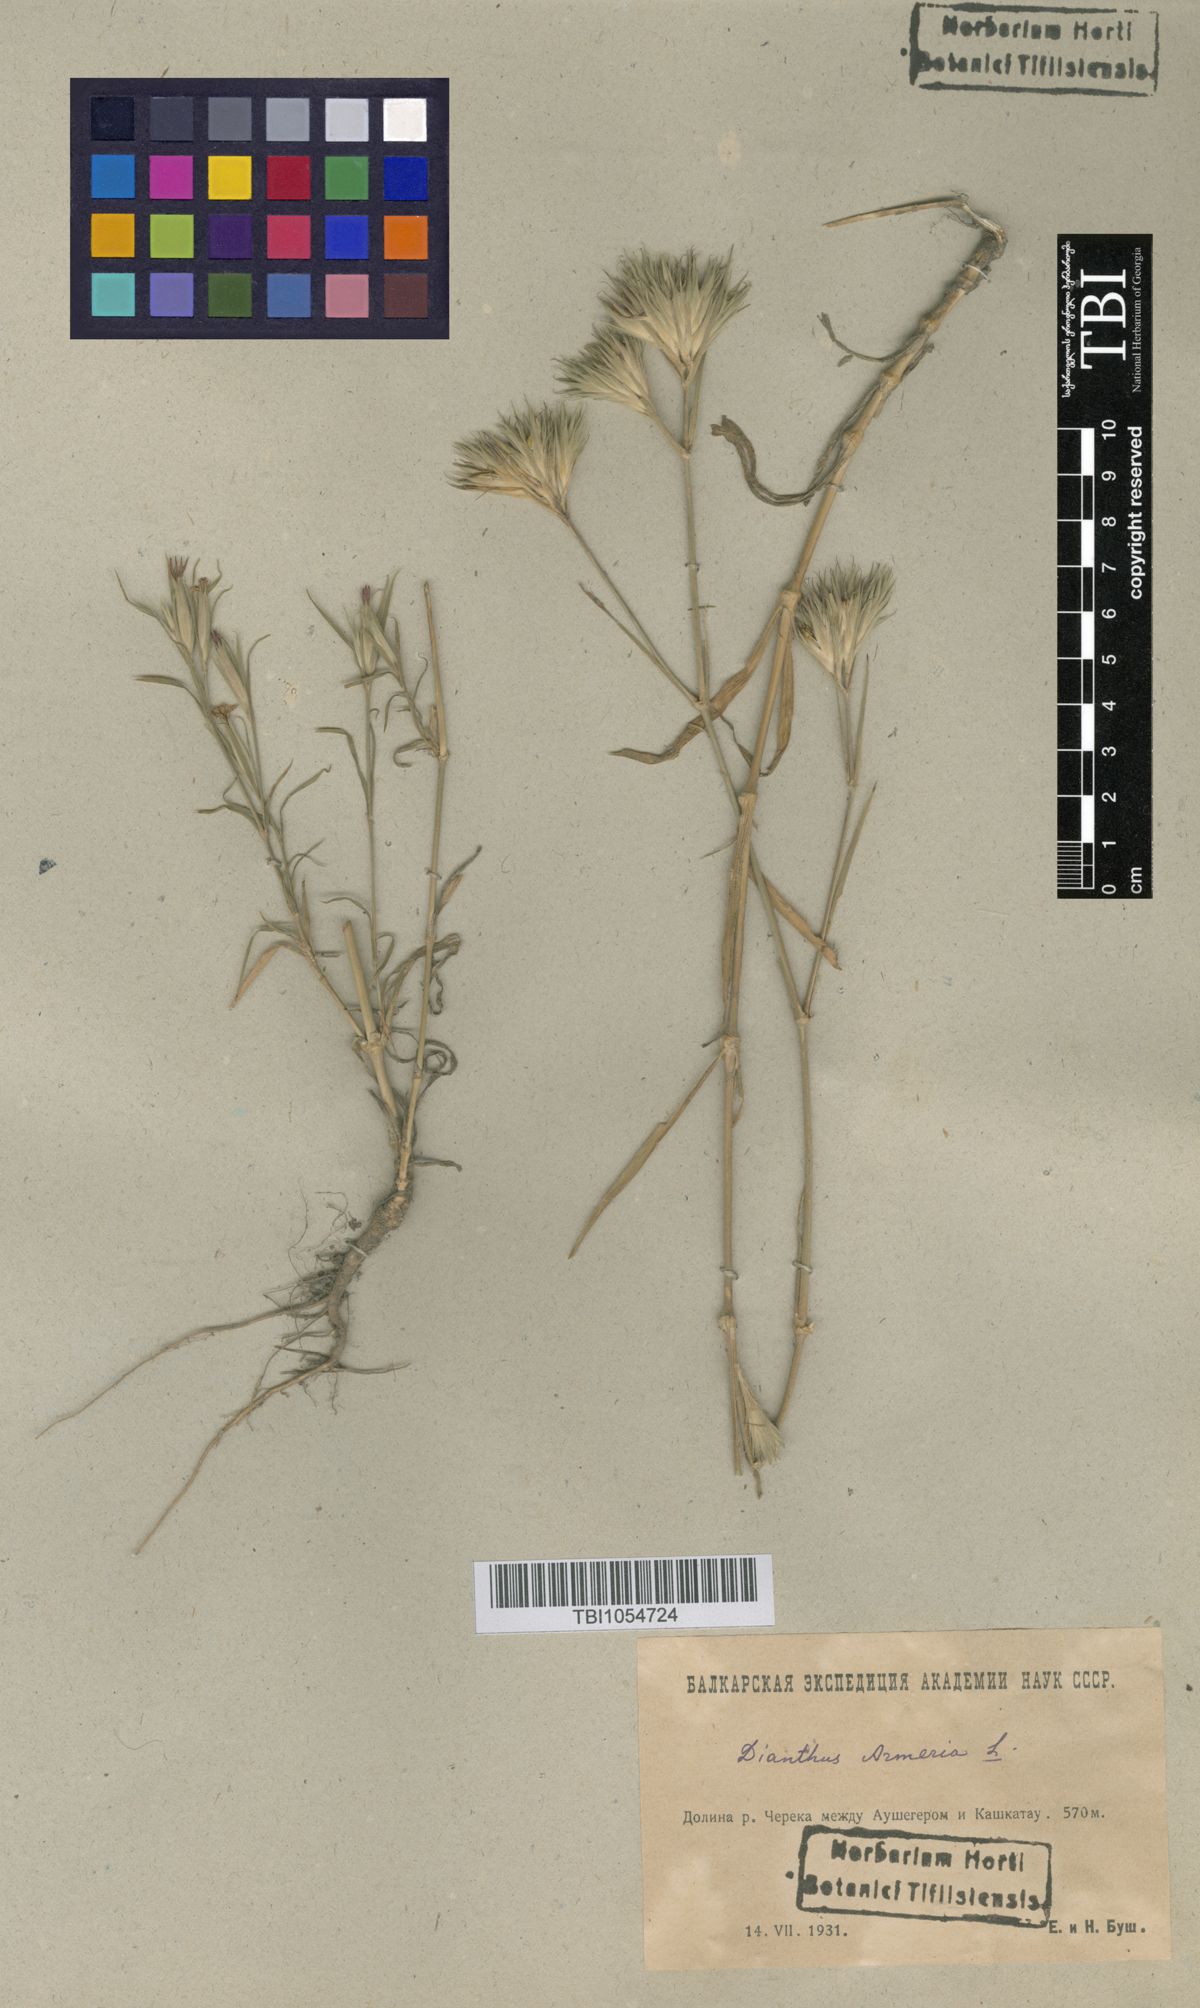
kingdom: Plantae
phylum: Tracheophyta
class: Magnoliopsida
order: Caryophyllales
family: Caryophyllaceae
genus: Dianthus
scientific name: Dianthus armeria
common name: Deptford pink
